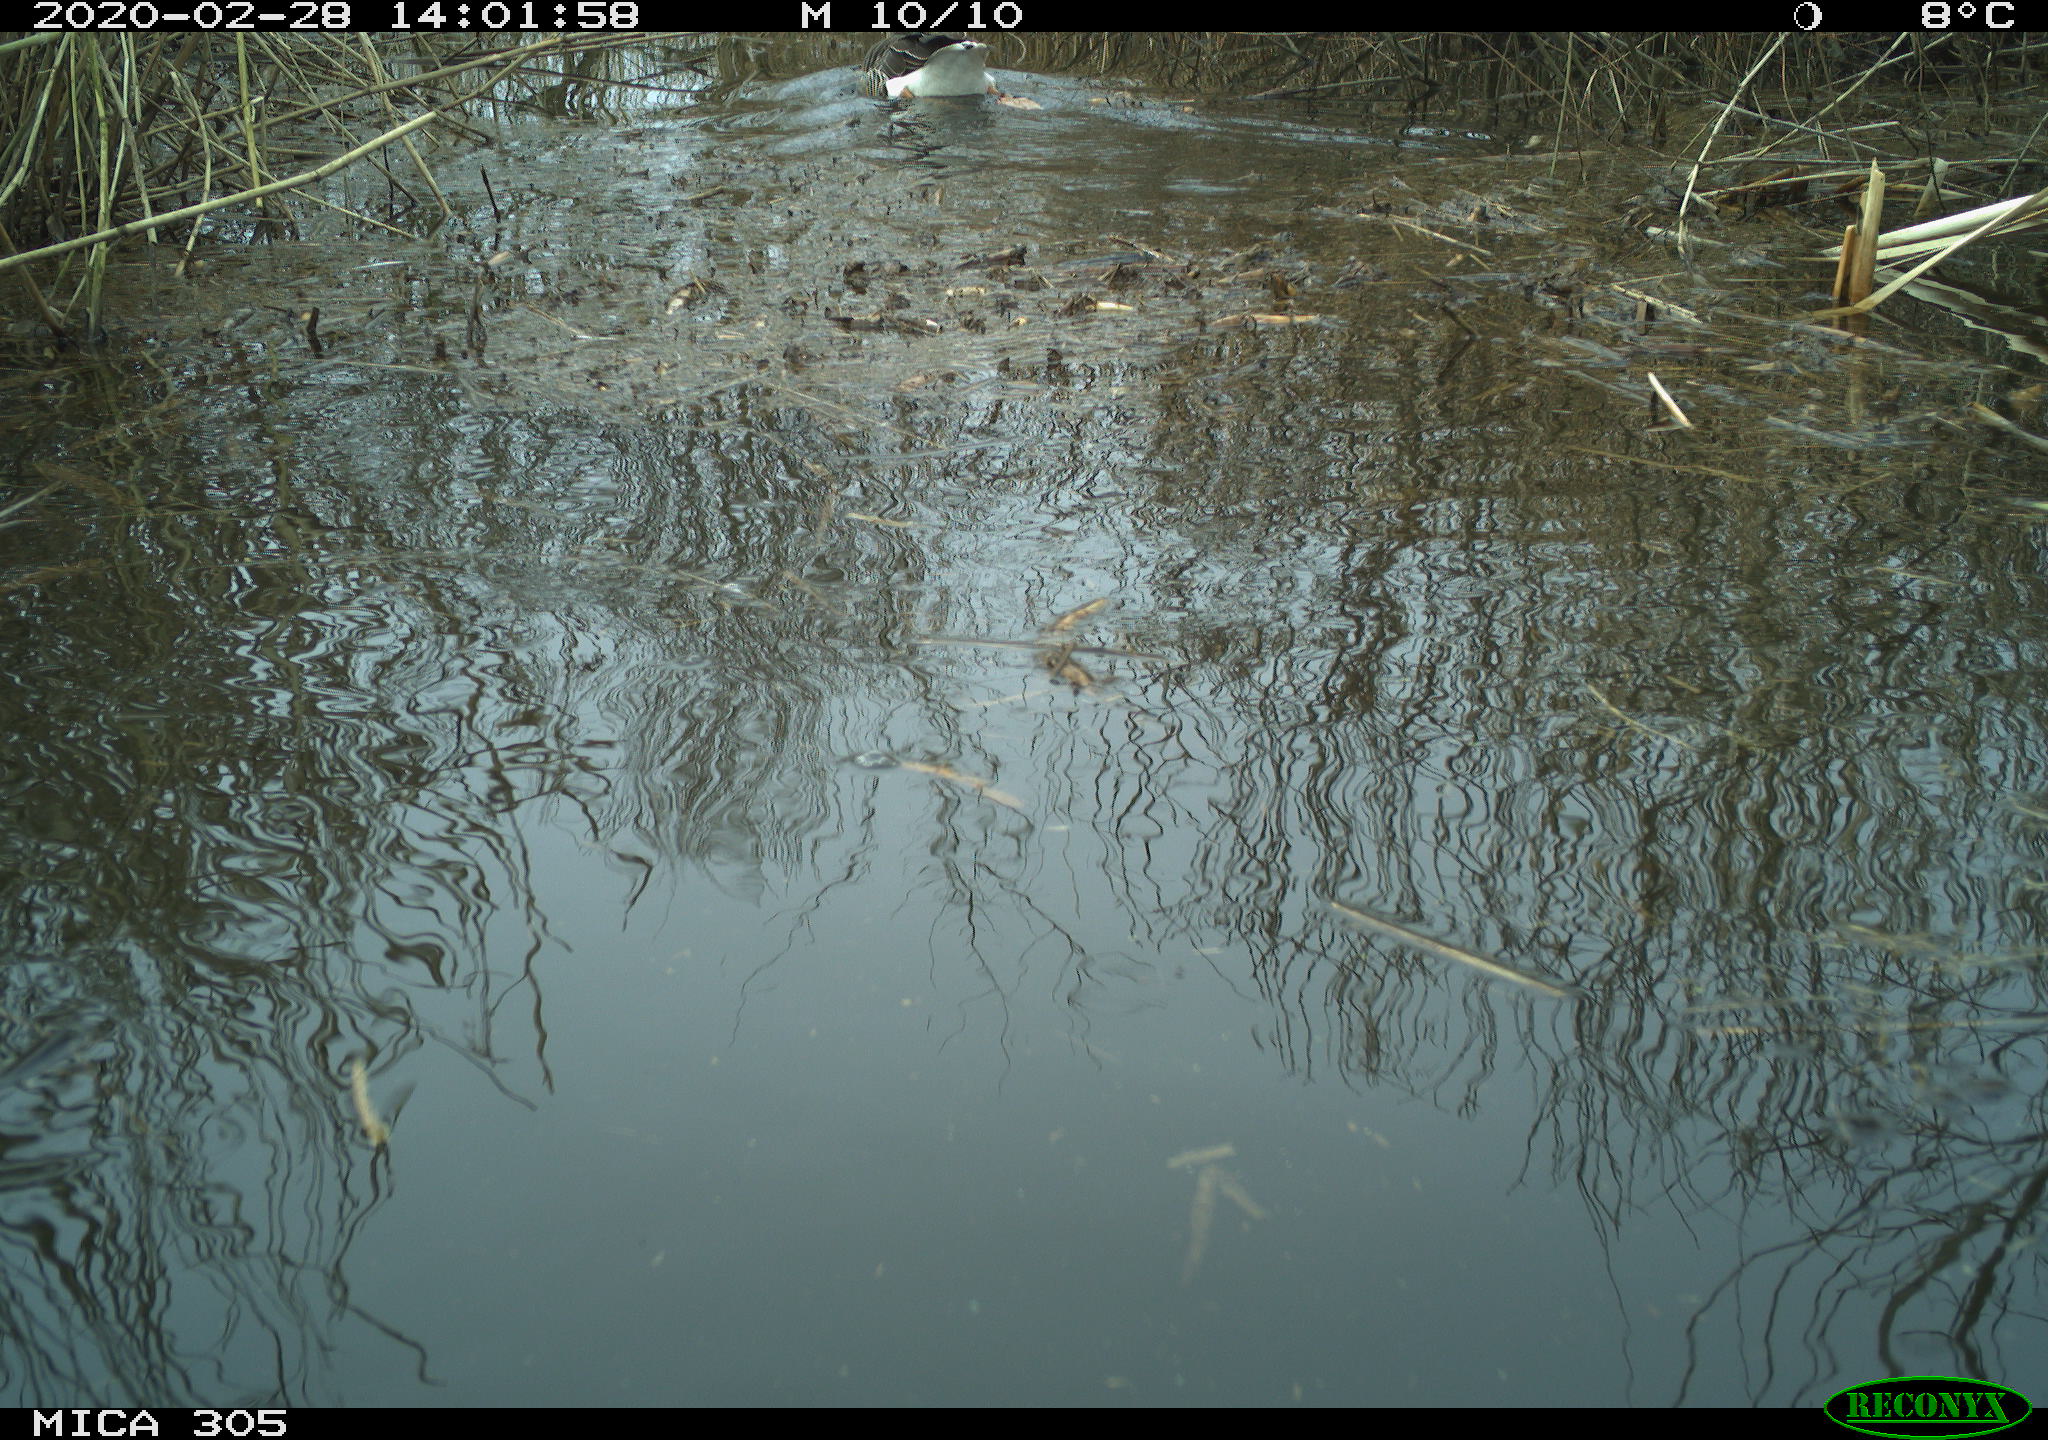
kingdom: Animalia
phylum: Chordata
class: Aves
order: Anseriformes
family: Anatidae
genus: Anser
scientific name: Anser anser
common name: Greylag goose
